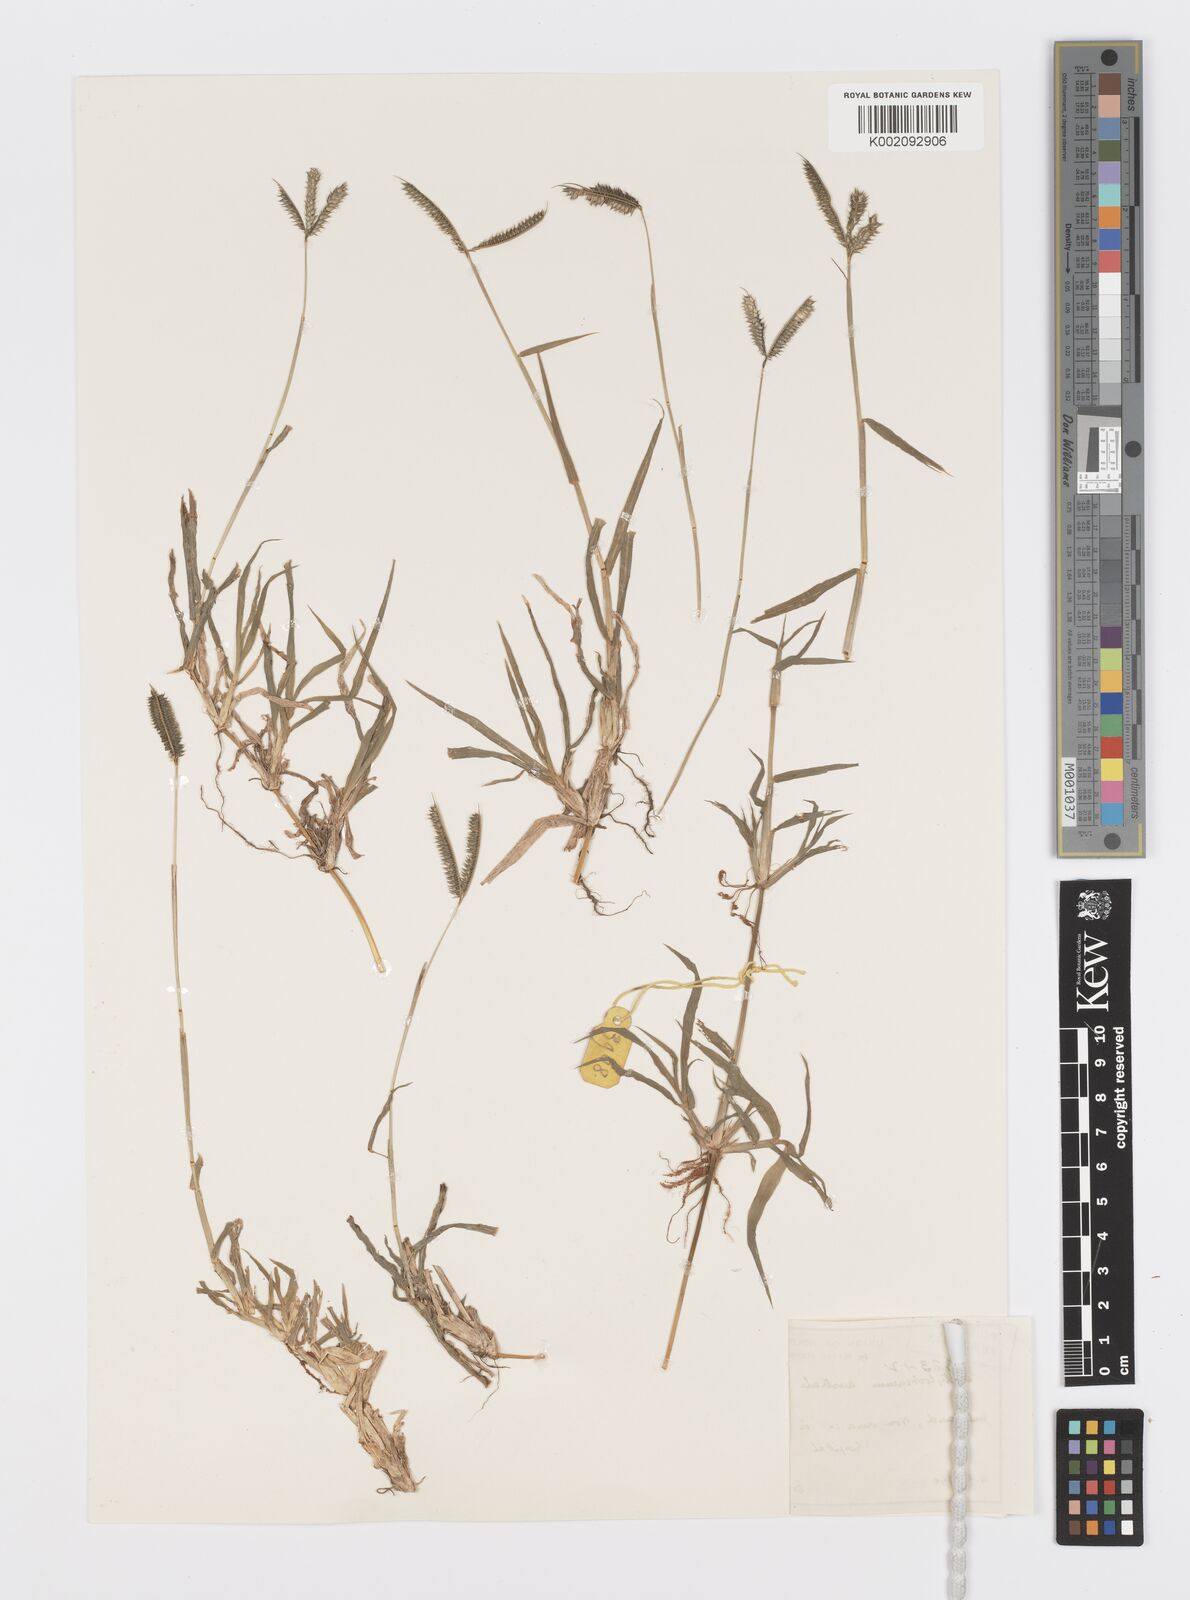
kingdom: Plantae
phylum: Tracheophyta
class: Liliopsida
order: Poales
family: Poaceae
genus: Dactyloctenium
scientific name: Dactyloctenium australe
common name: Durban grass
